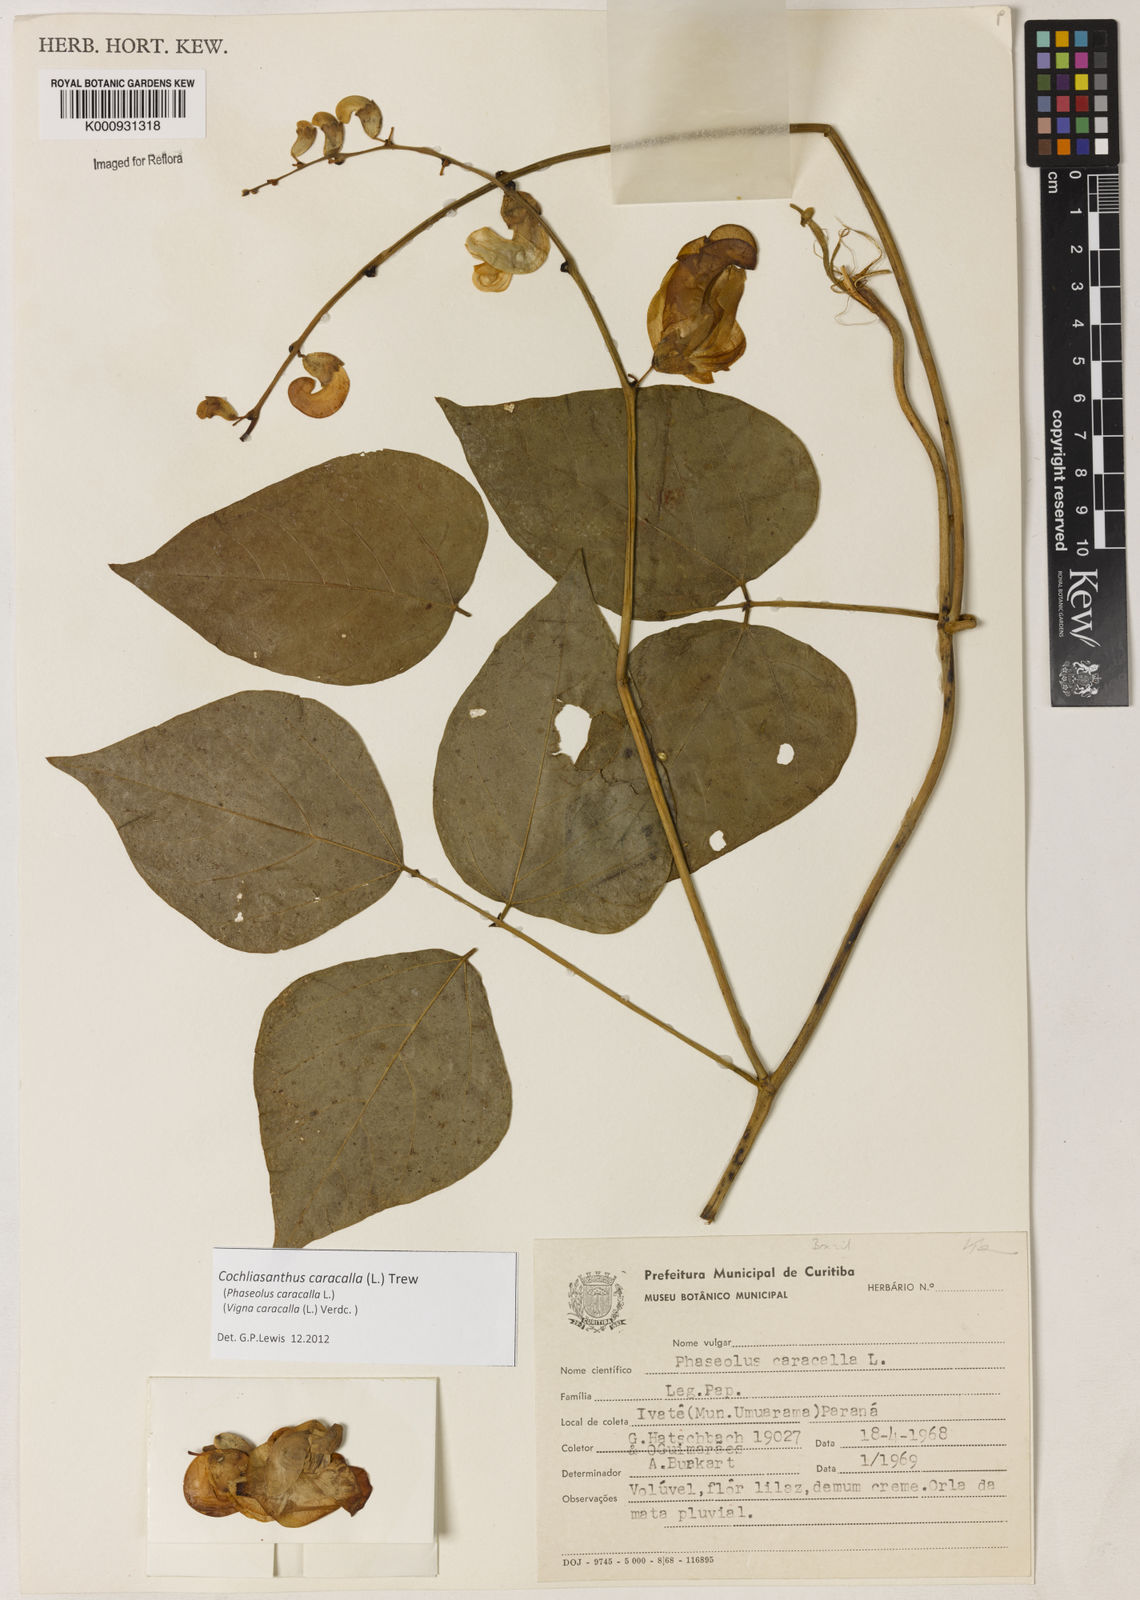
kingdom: Plantae
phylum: Tracheophyta
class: Magnoliopsida
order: Fabales
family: Fabaceae
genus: Cochliasanthus
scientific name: Cochliasanthus caracalla
